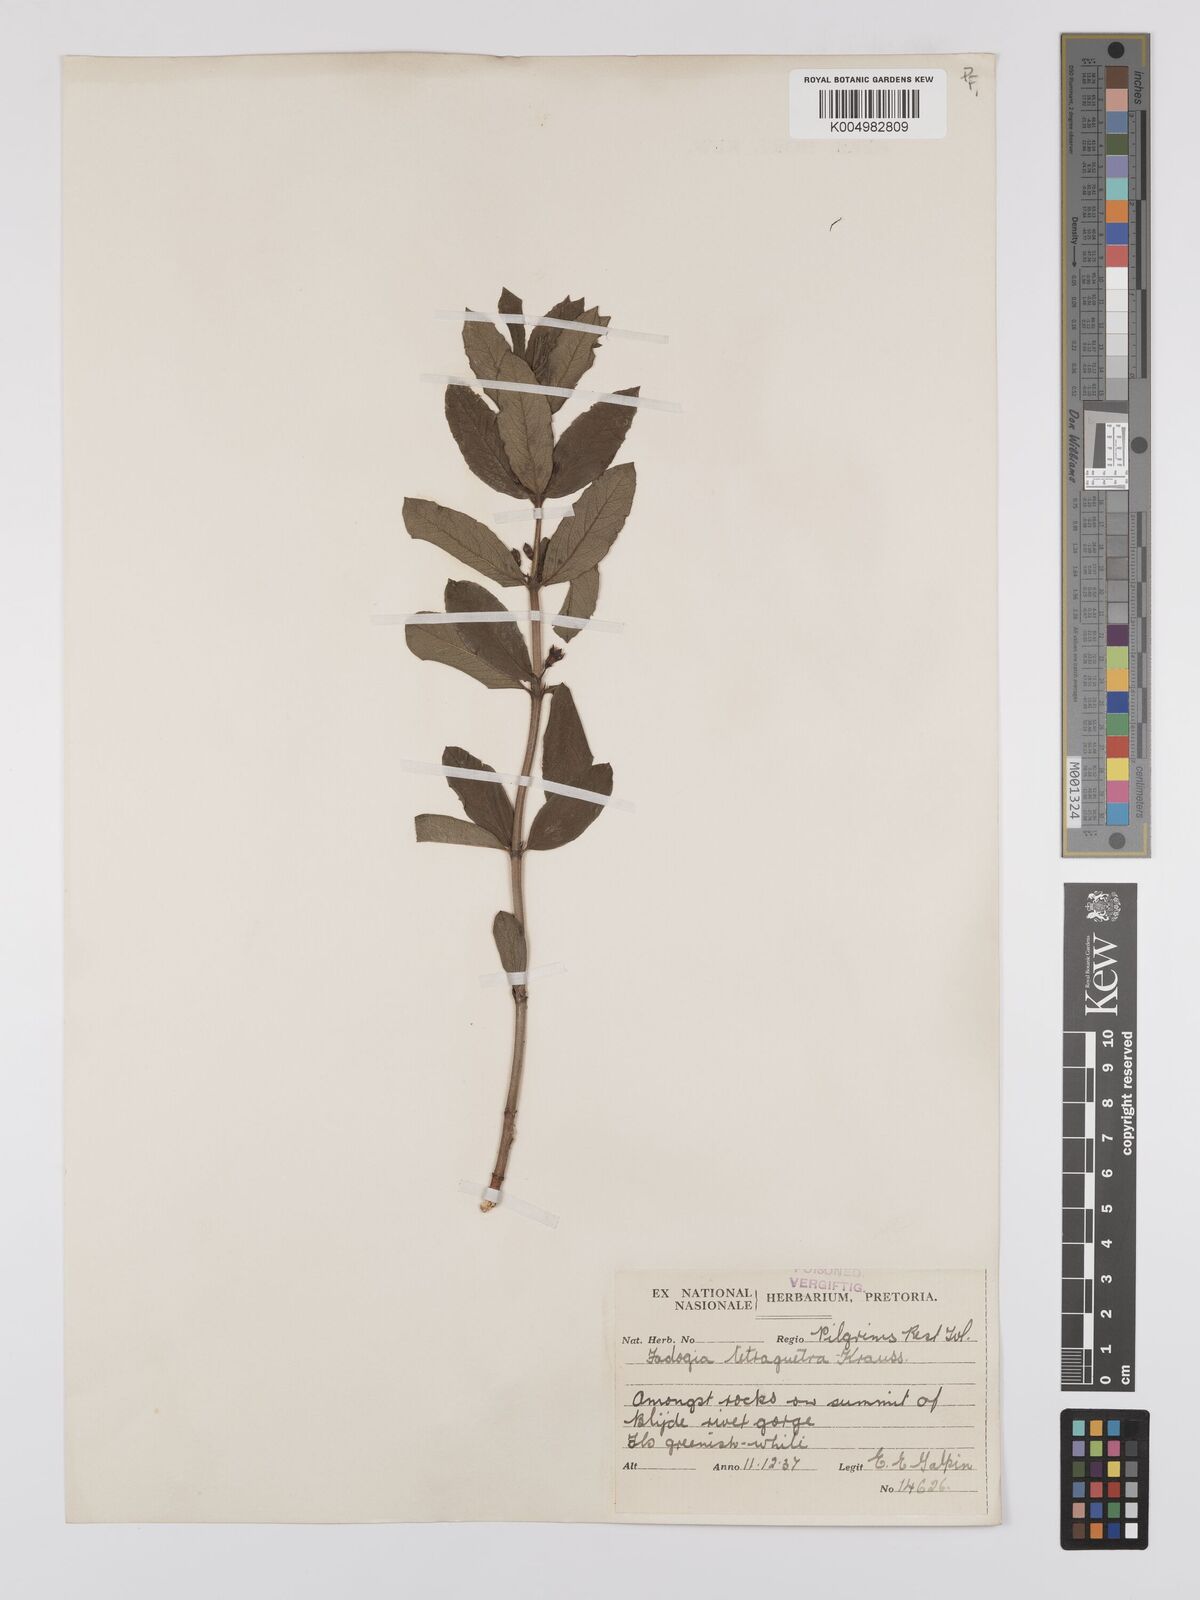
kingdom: Plantae
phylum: Tracheophyta
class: Magnoliopsida
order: Gentianales
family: Rubiaceae
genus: Fadogia
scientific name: Fadogia tetraquetra
